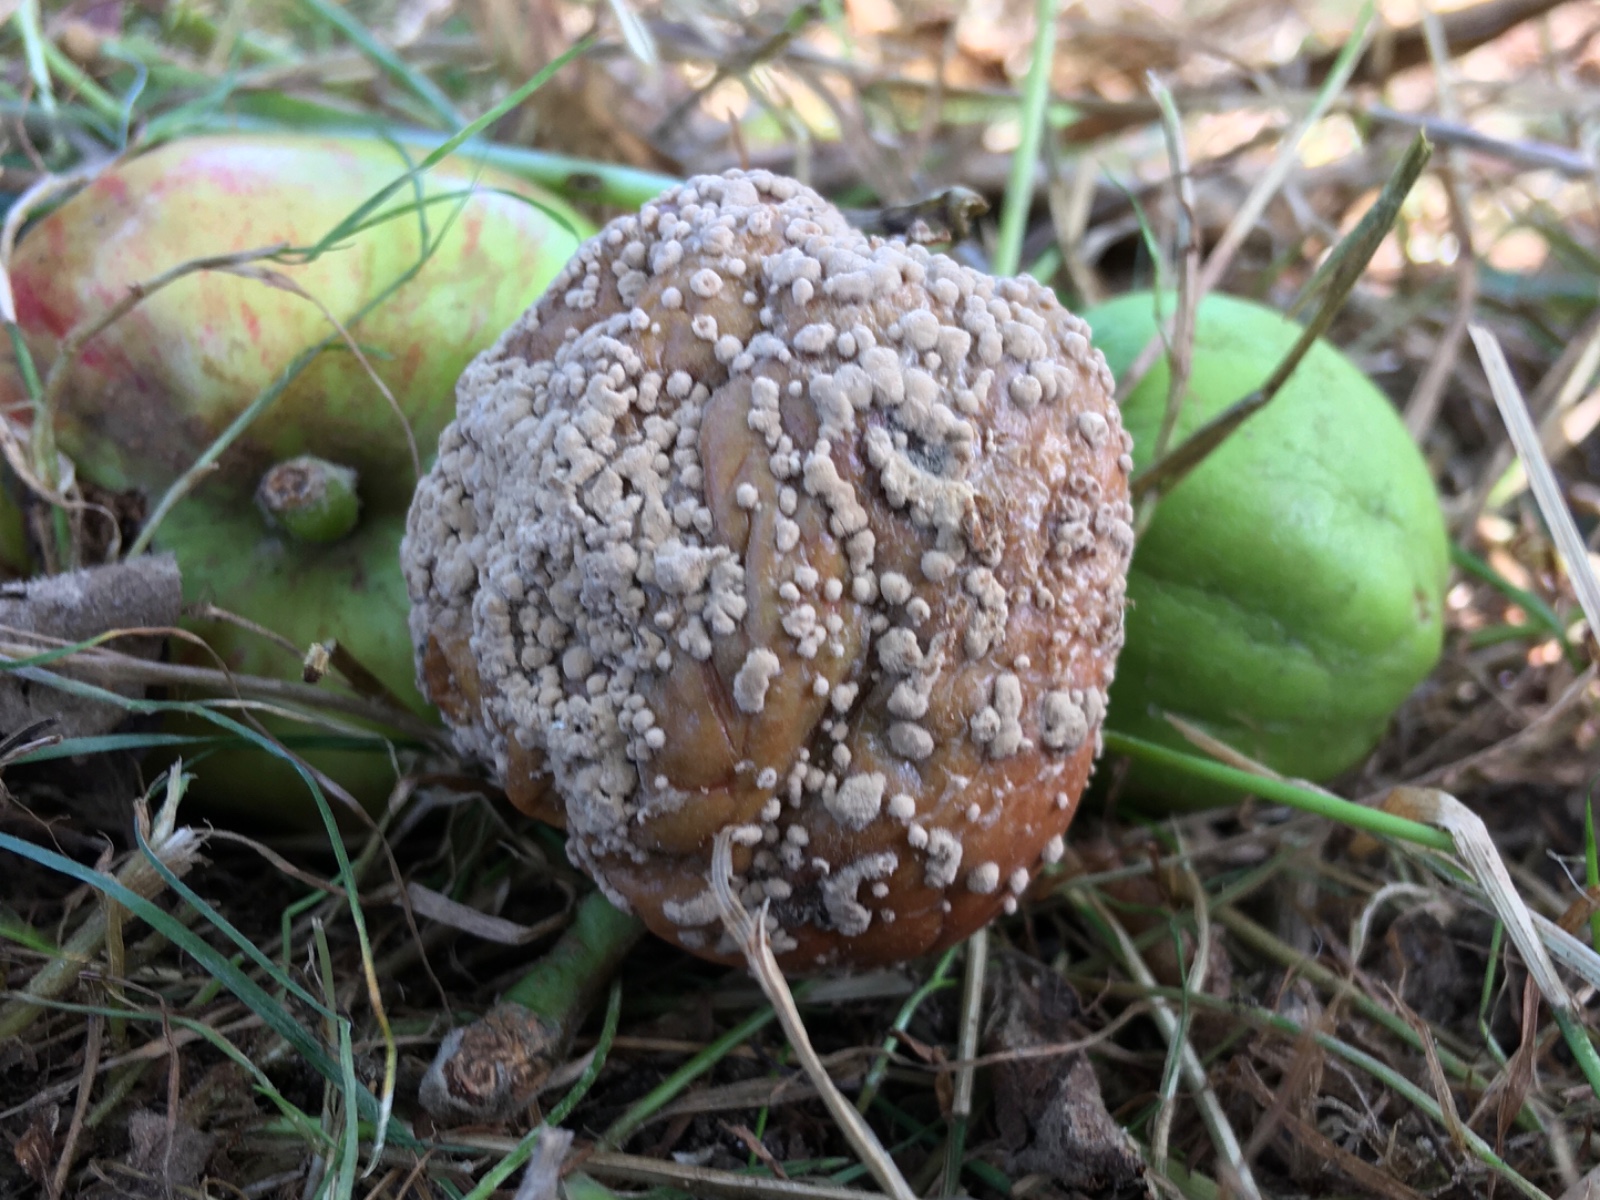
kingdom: Fungi
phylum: Ascomycota
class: Leotiomycetes
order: Helotiales
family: Sclerotiniaceae
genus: Monilinia
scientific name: Monilinia fructigena
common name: æble-knoldskive
